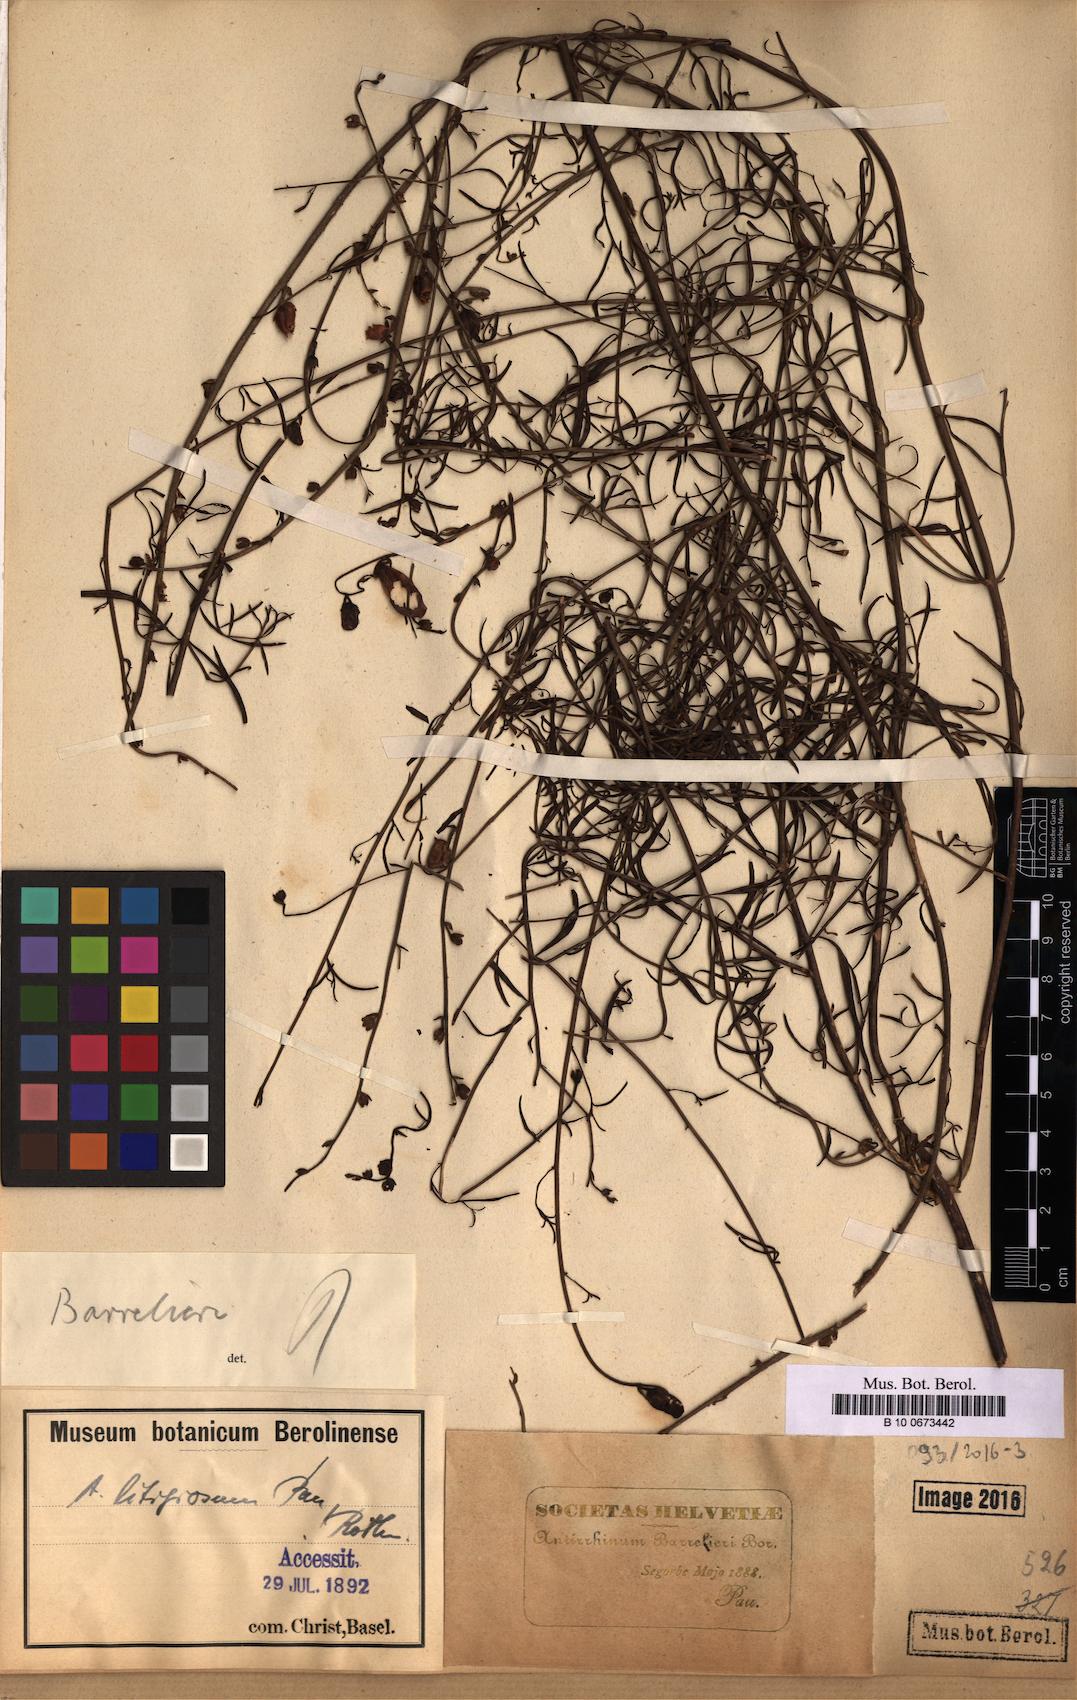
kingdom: Plantae
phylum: Tracheophyta
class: Magnoliopsida
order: Lamiales
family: Plantaginaceae
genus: Antirrhinum
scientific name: Antirrhinum litigiosum
